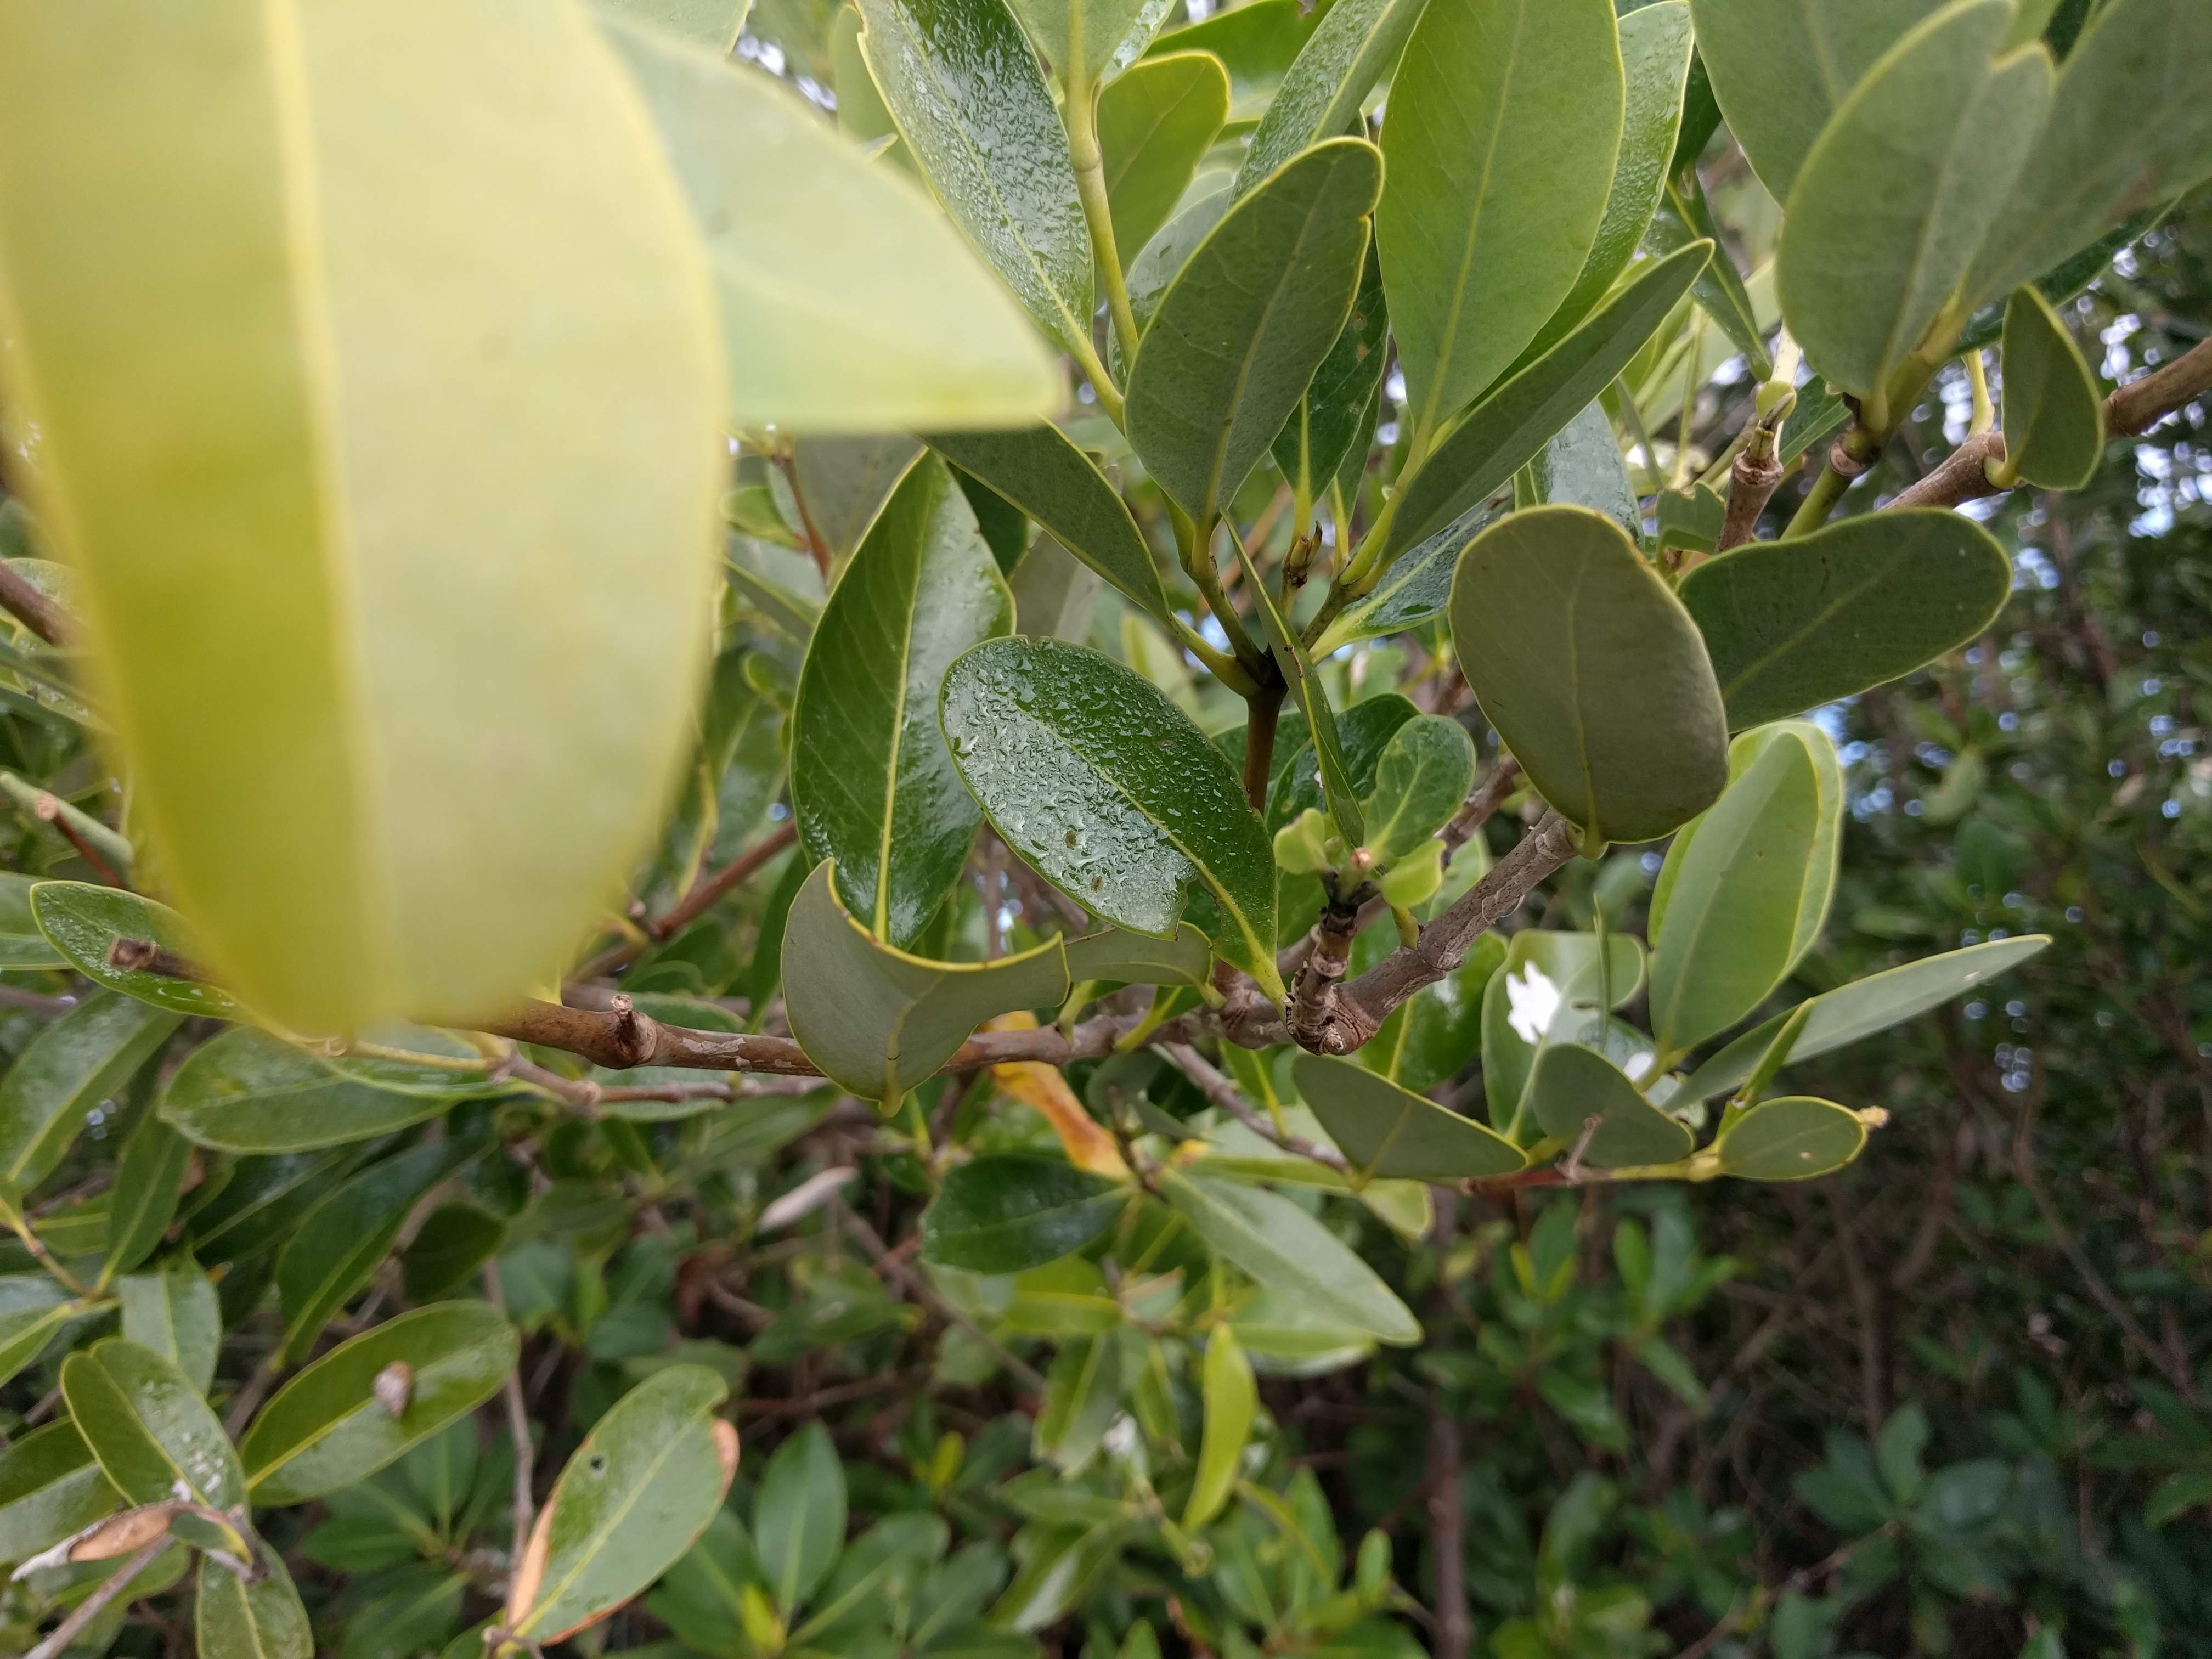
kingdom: Plantae
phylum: Tracheophyta
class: Magnoliopsida
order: Lamiales
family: Acanthaceae
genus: Avicennia
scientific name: Avicennia germinans
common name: Black Mangrove
